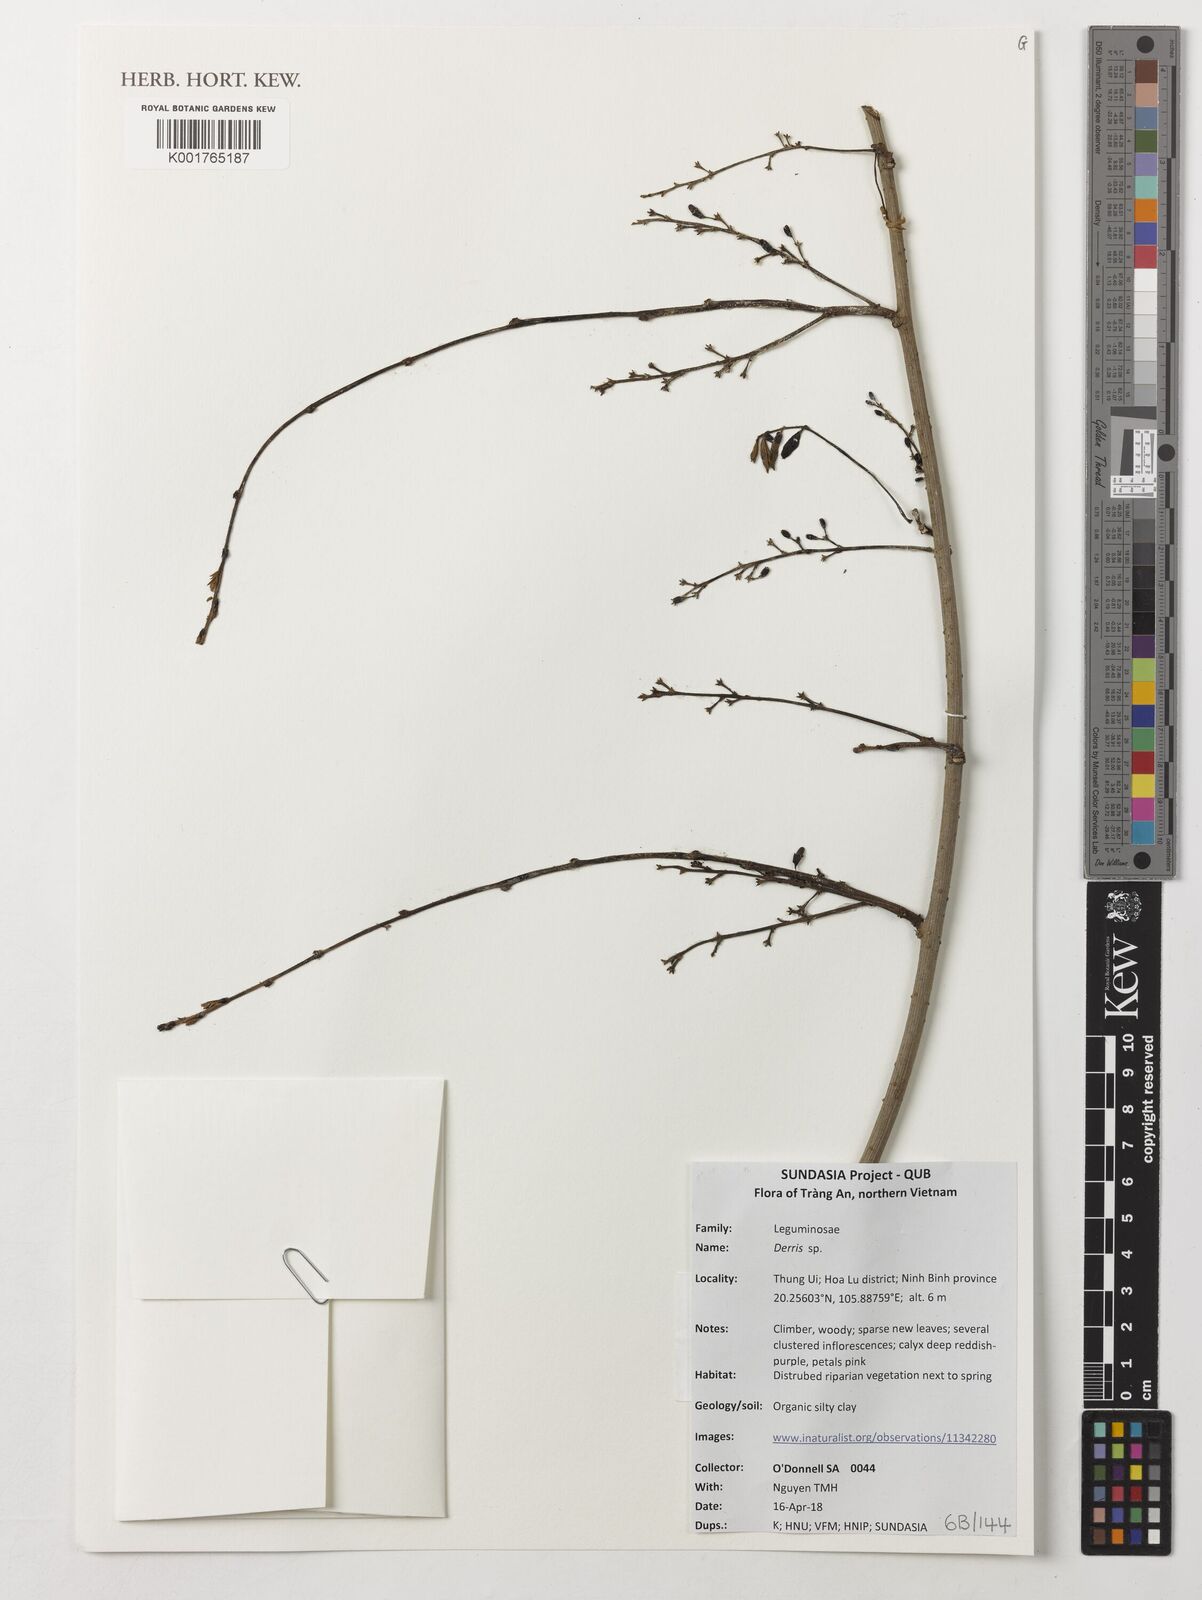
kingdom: Plantae
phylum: Tracheophyta
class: Magnoliopsida
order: Fabales
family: Fabaceae
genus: Derris
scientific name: Derris
